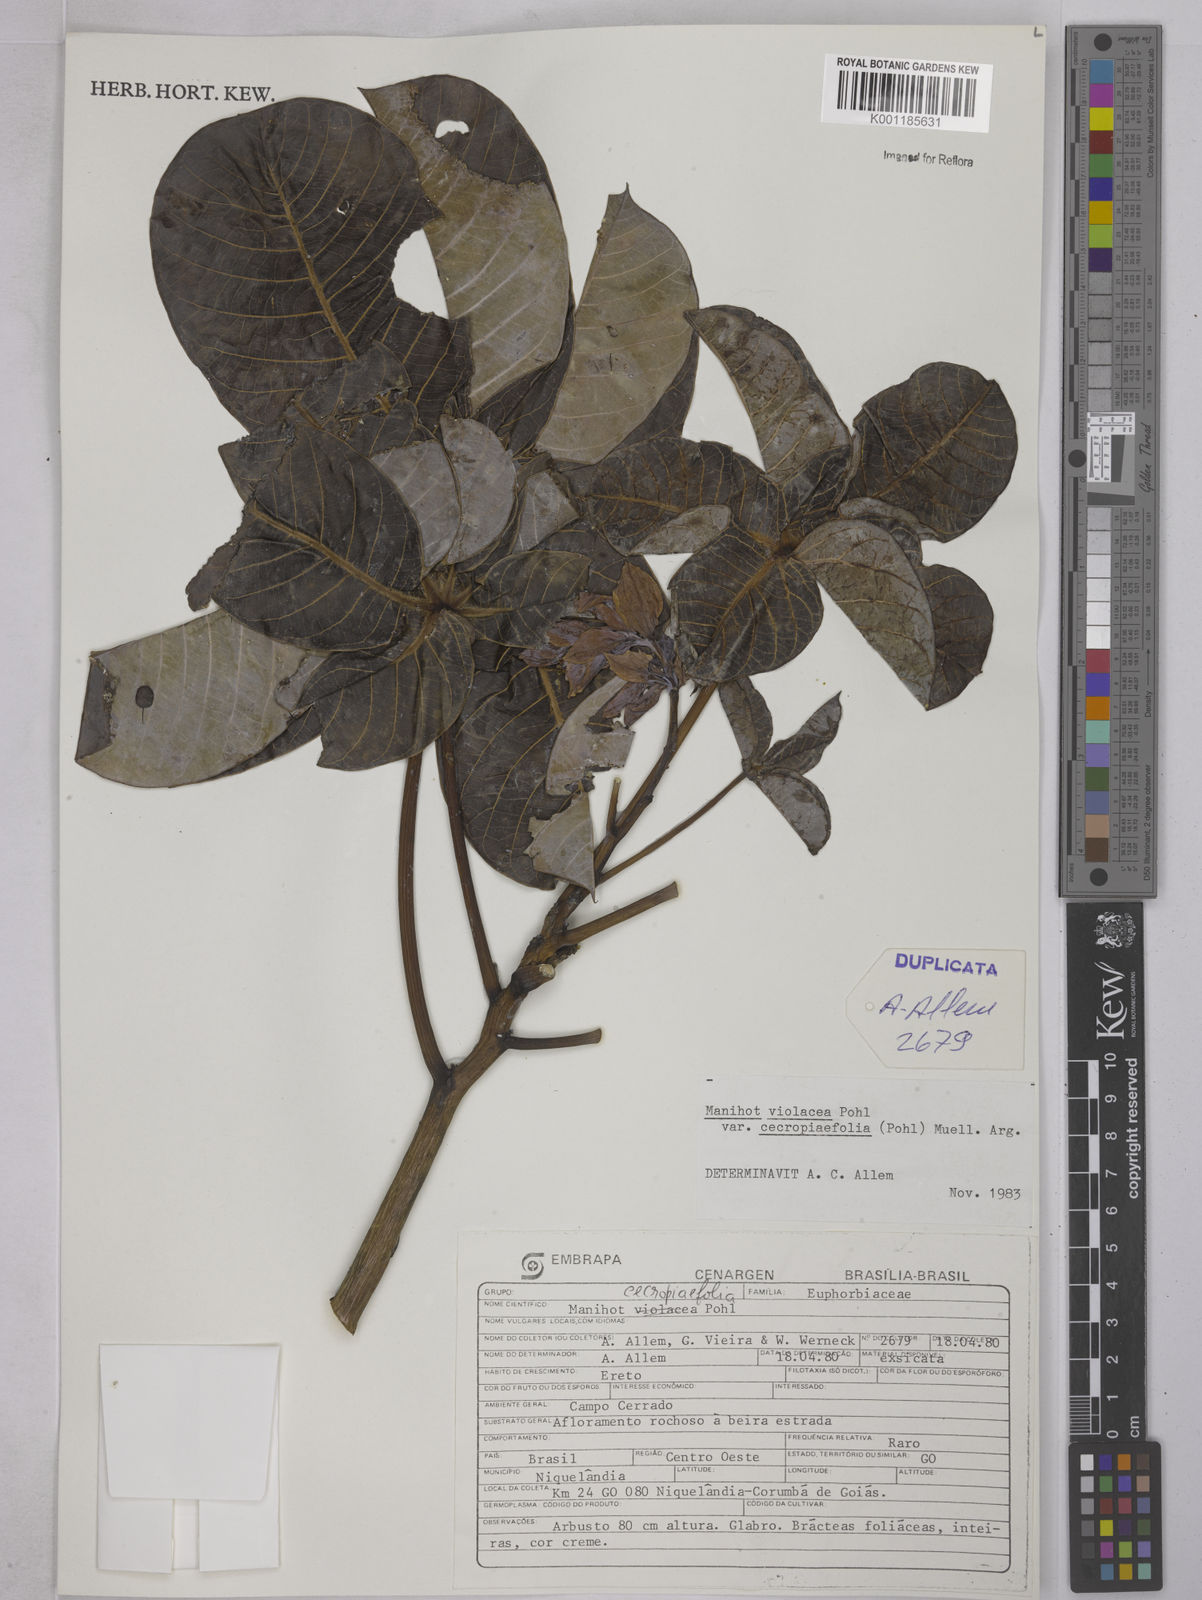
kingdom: Plantae
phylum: Tracheophyta
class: Magnoliopsida
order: Malpighiales
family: Euphorbiaceae
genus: Manihot
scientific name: Manihot cecropiifolia
